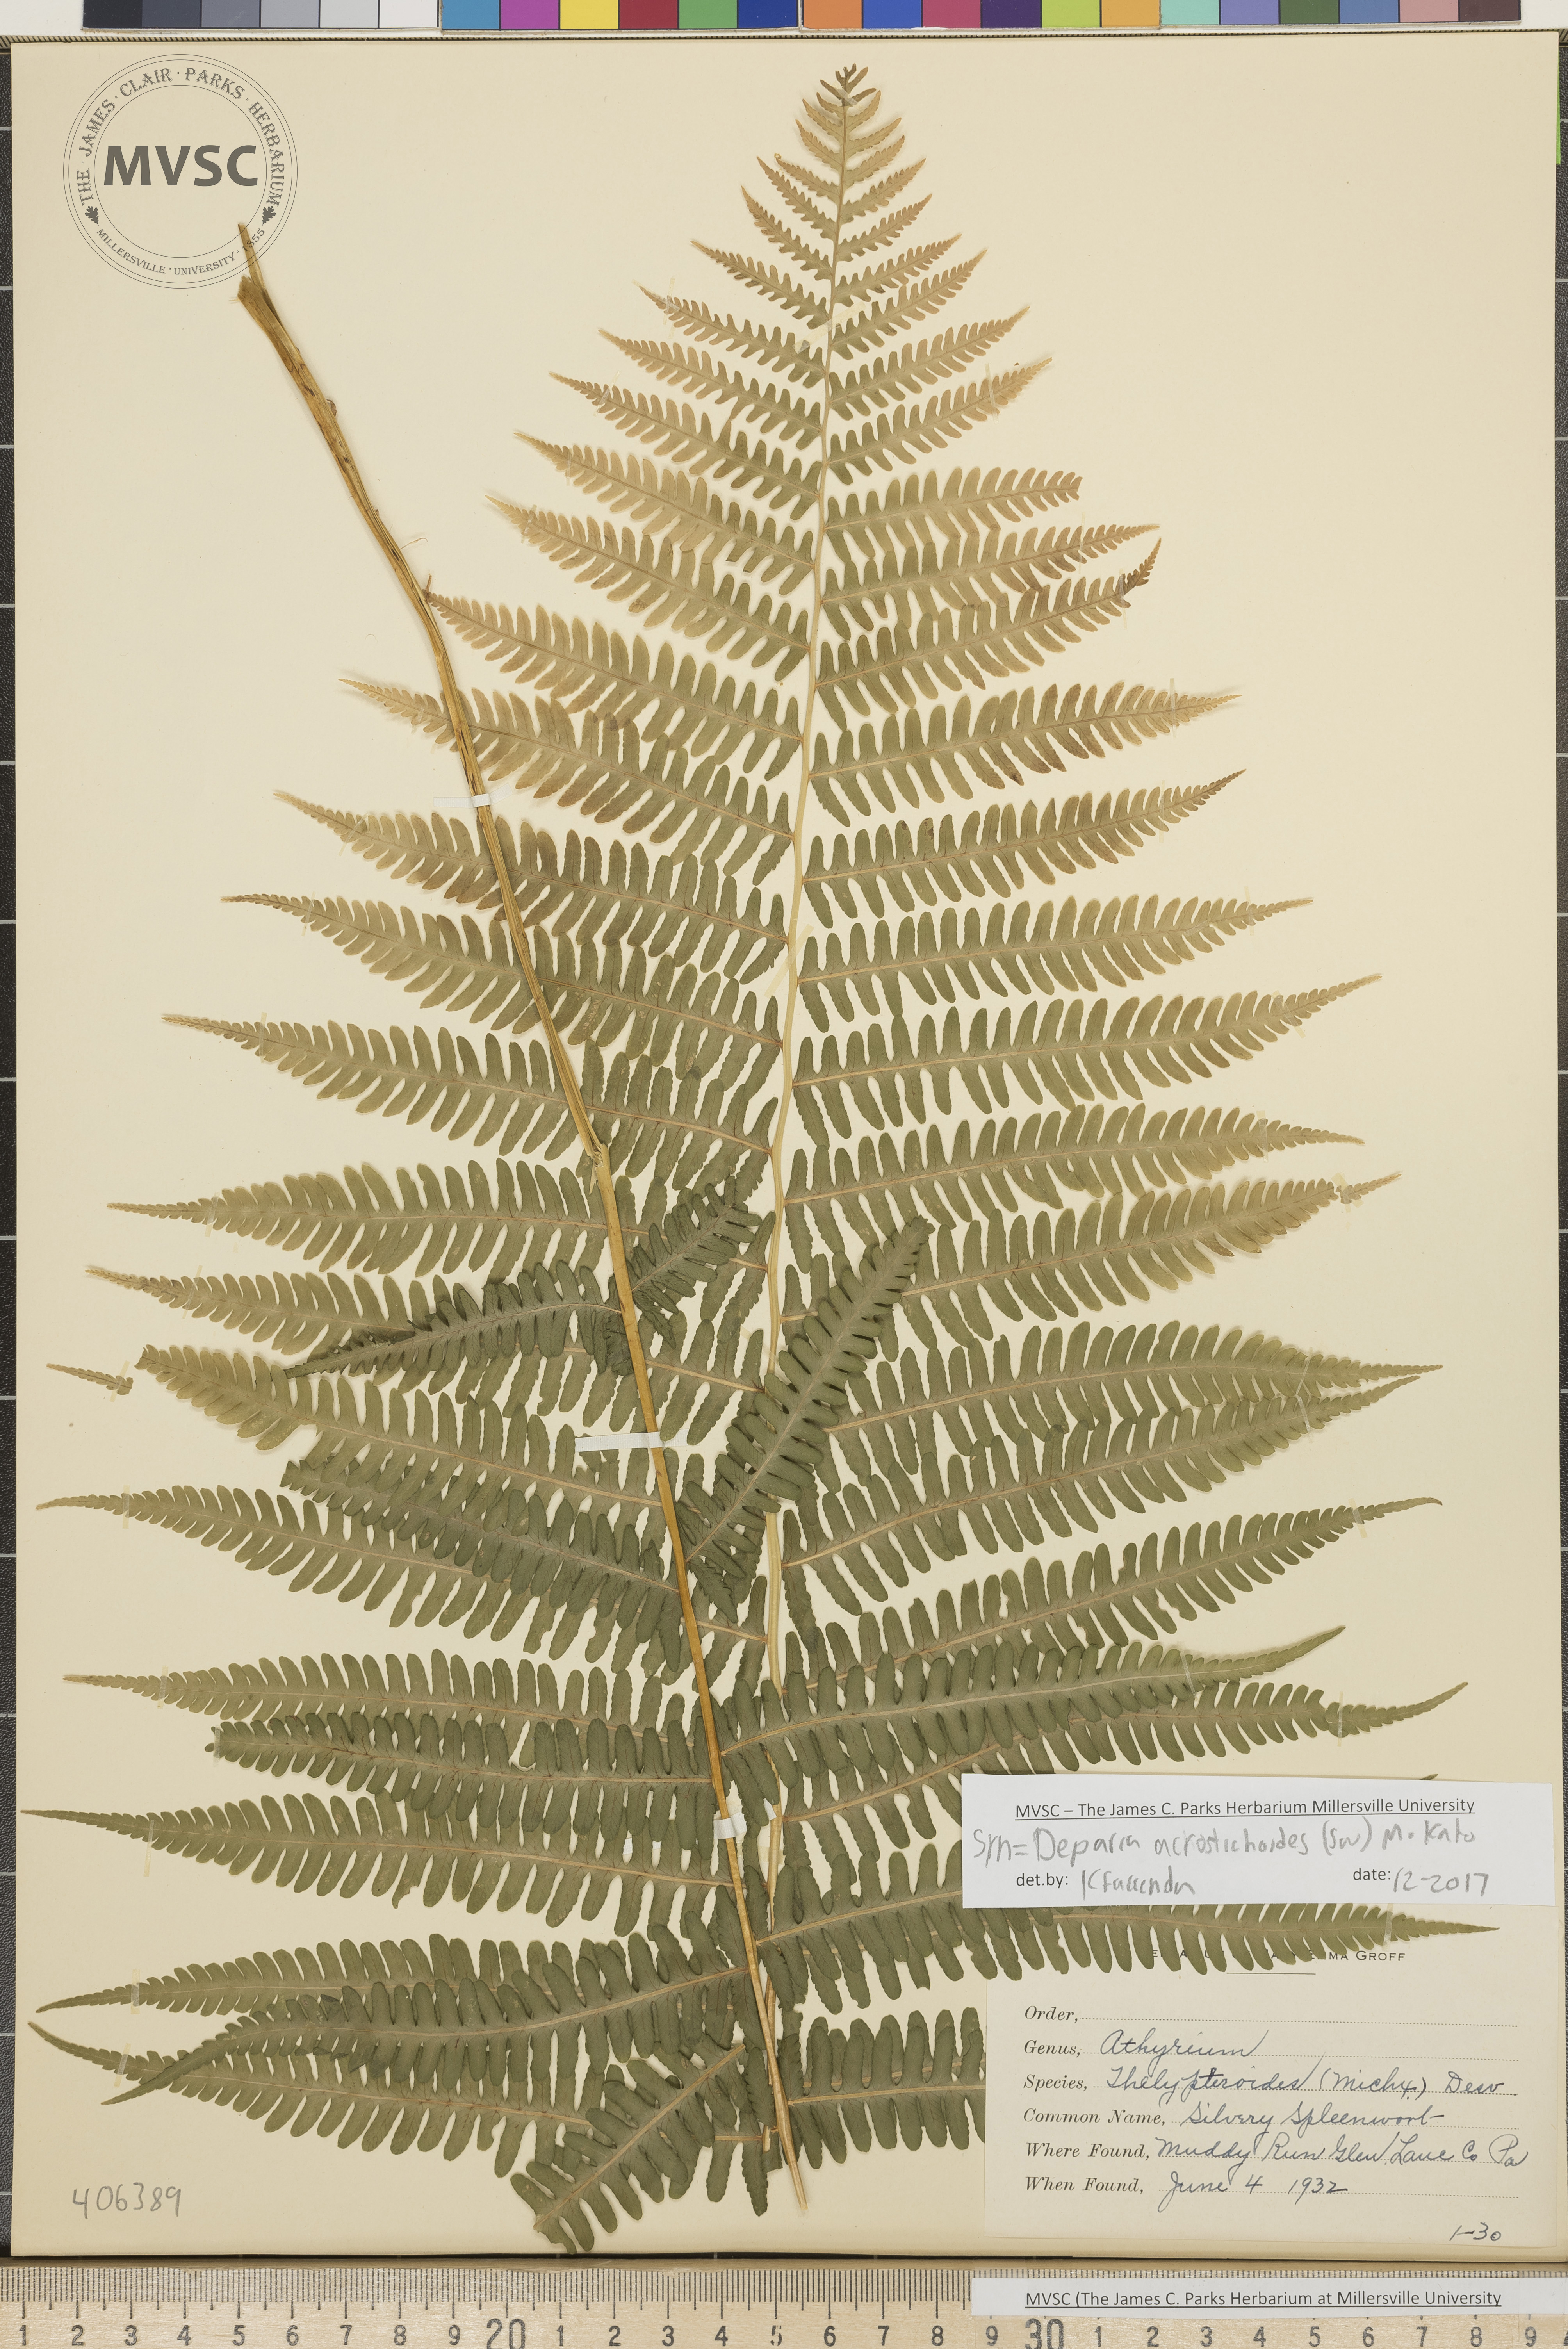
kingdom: Plantae
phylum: Tracheophyta
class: Polypodiopsida
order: Polypodiales
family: Athyriaceae
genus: Deparia
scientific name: Deparia acrostichoides
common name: Silver false spleenwort
